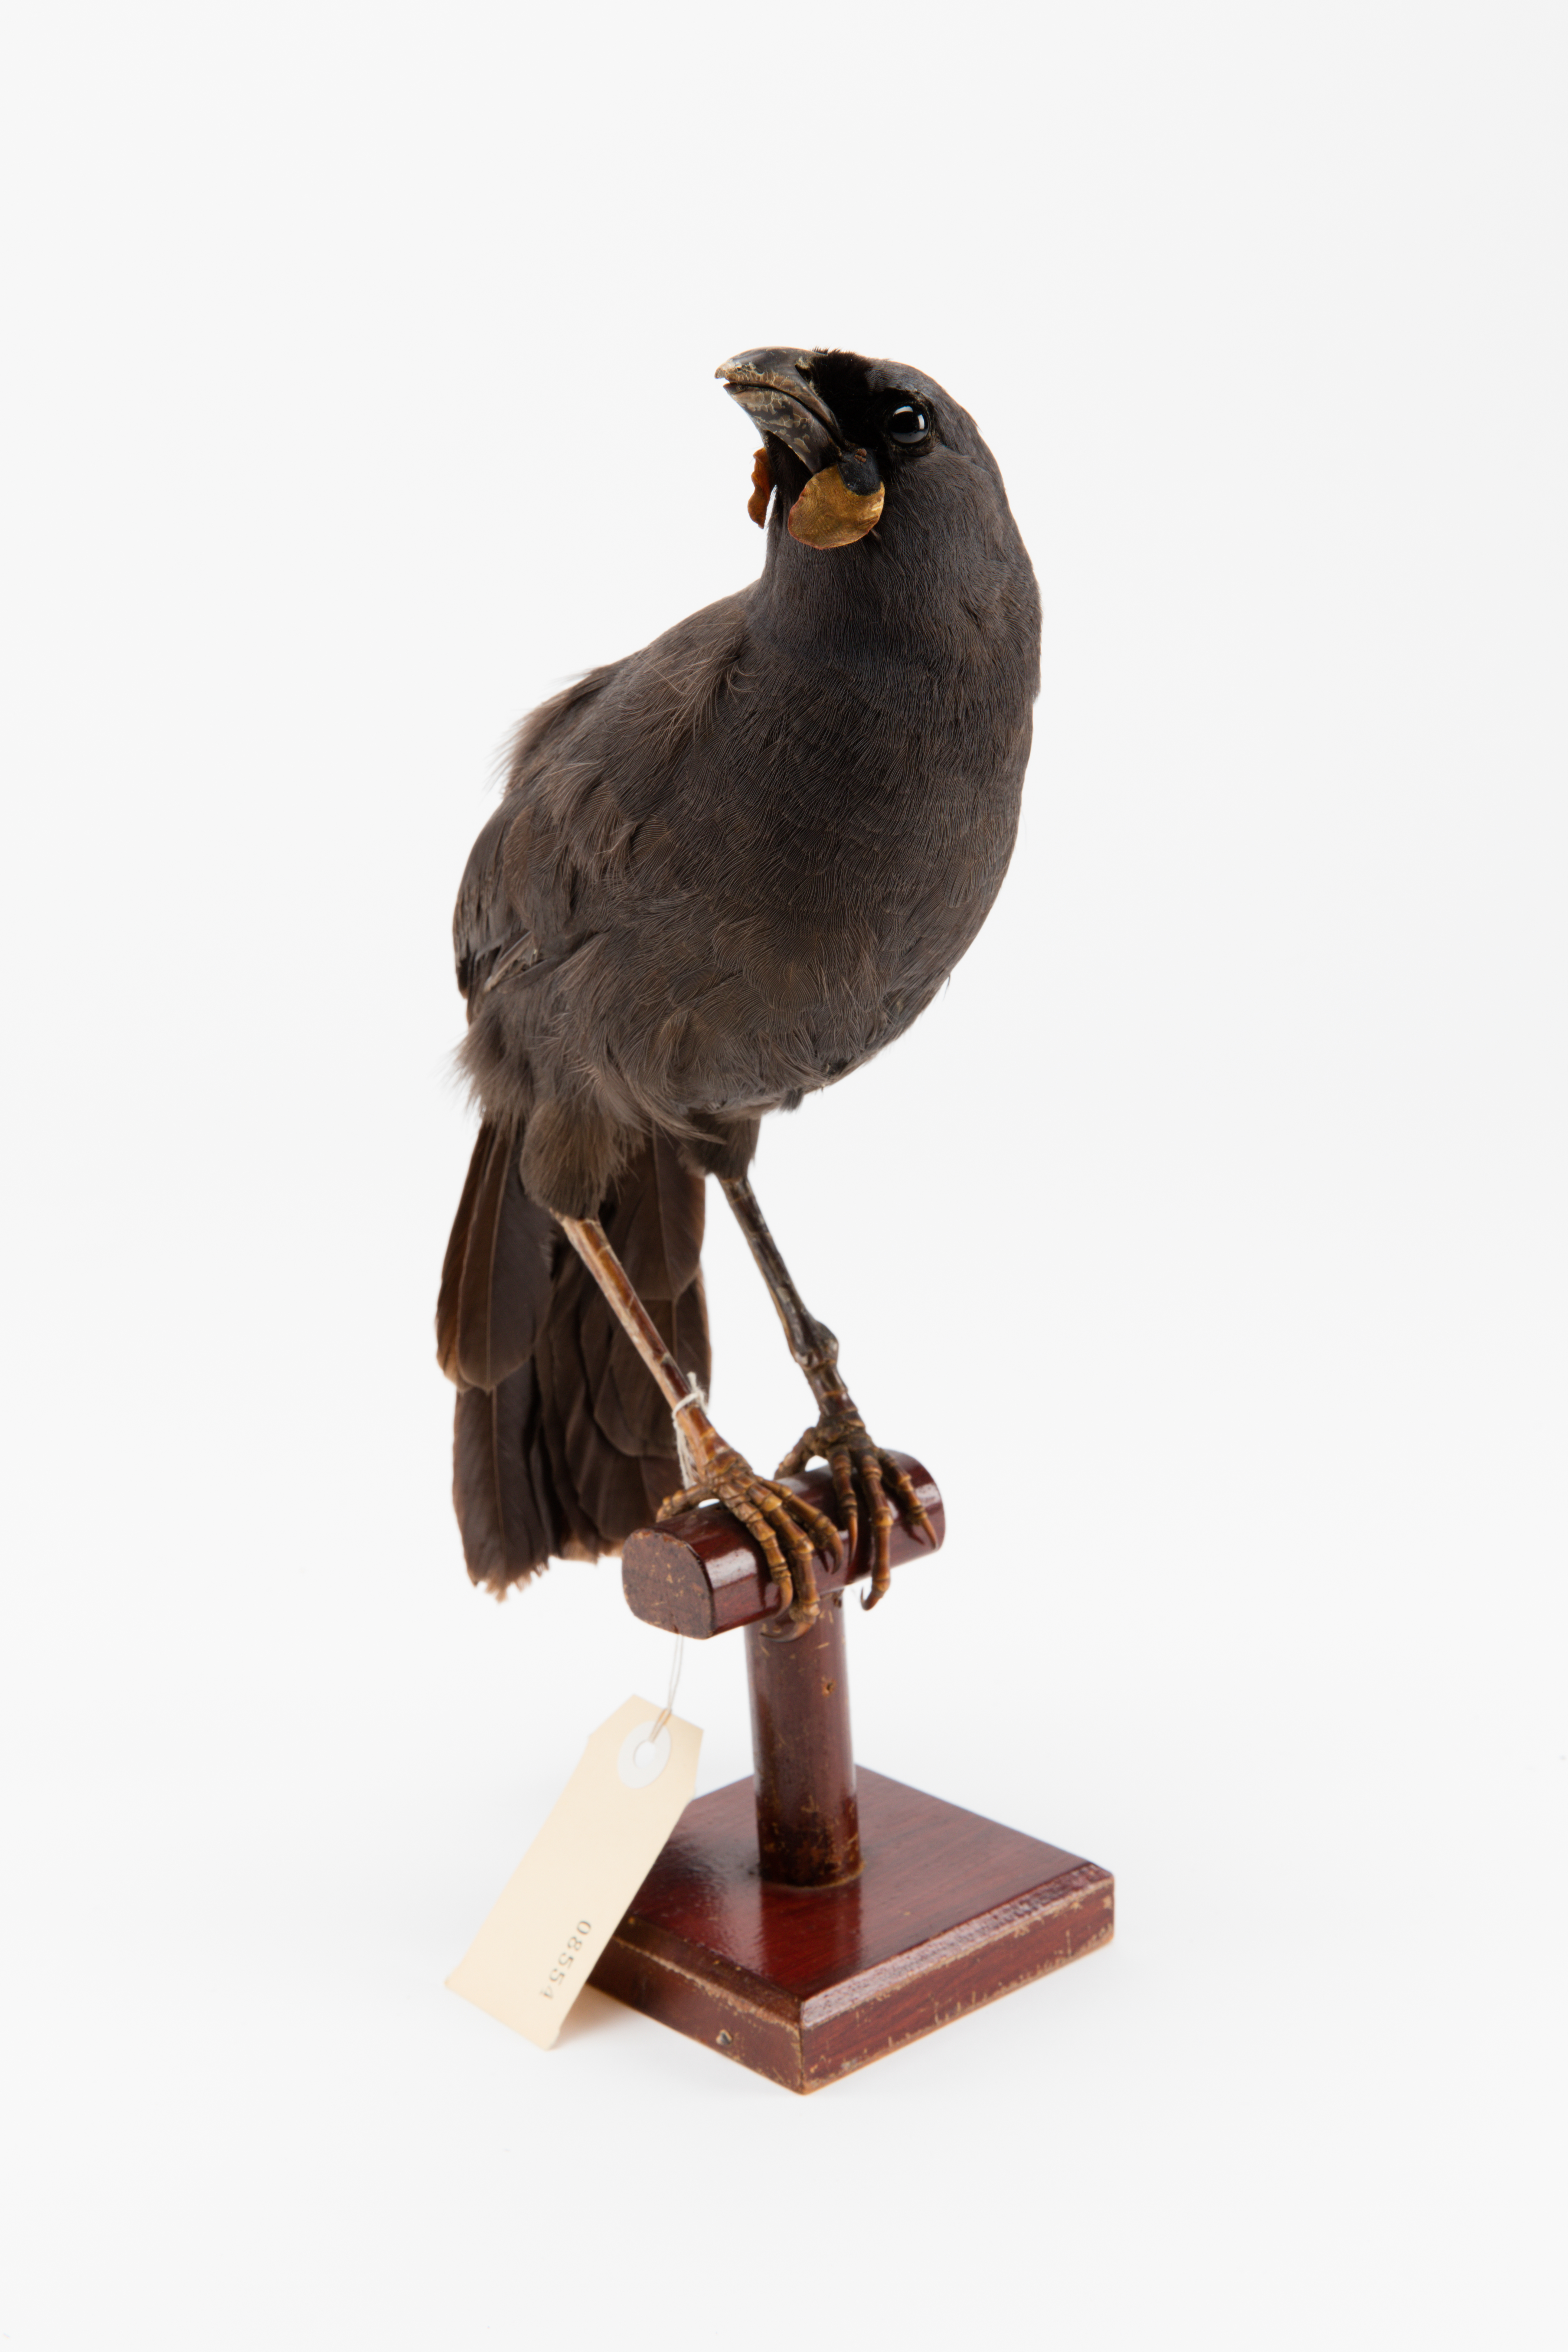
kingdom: Animalia
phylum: Chordata
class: Aves
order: Passeriformes
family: Callaeatidae
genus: Callaeas
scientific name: Callaeas cinereus
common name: South island kokako
